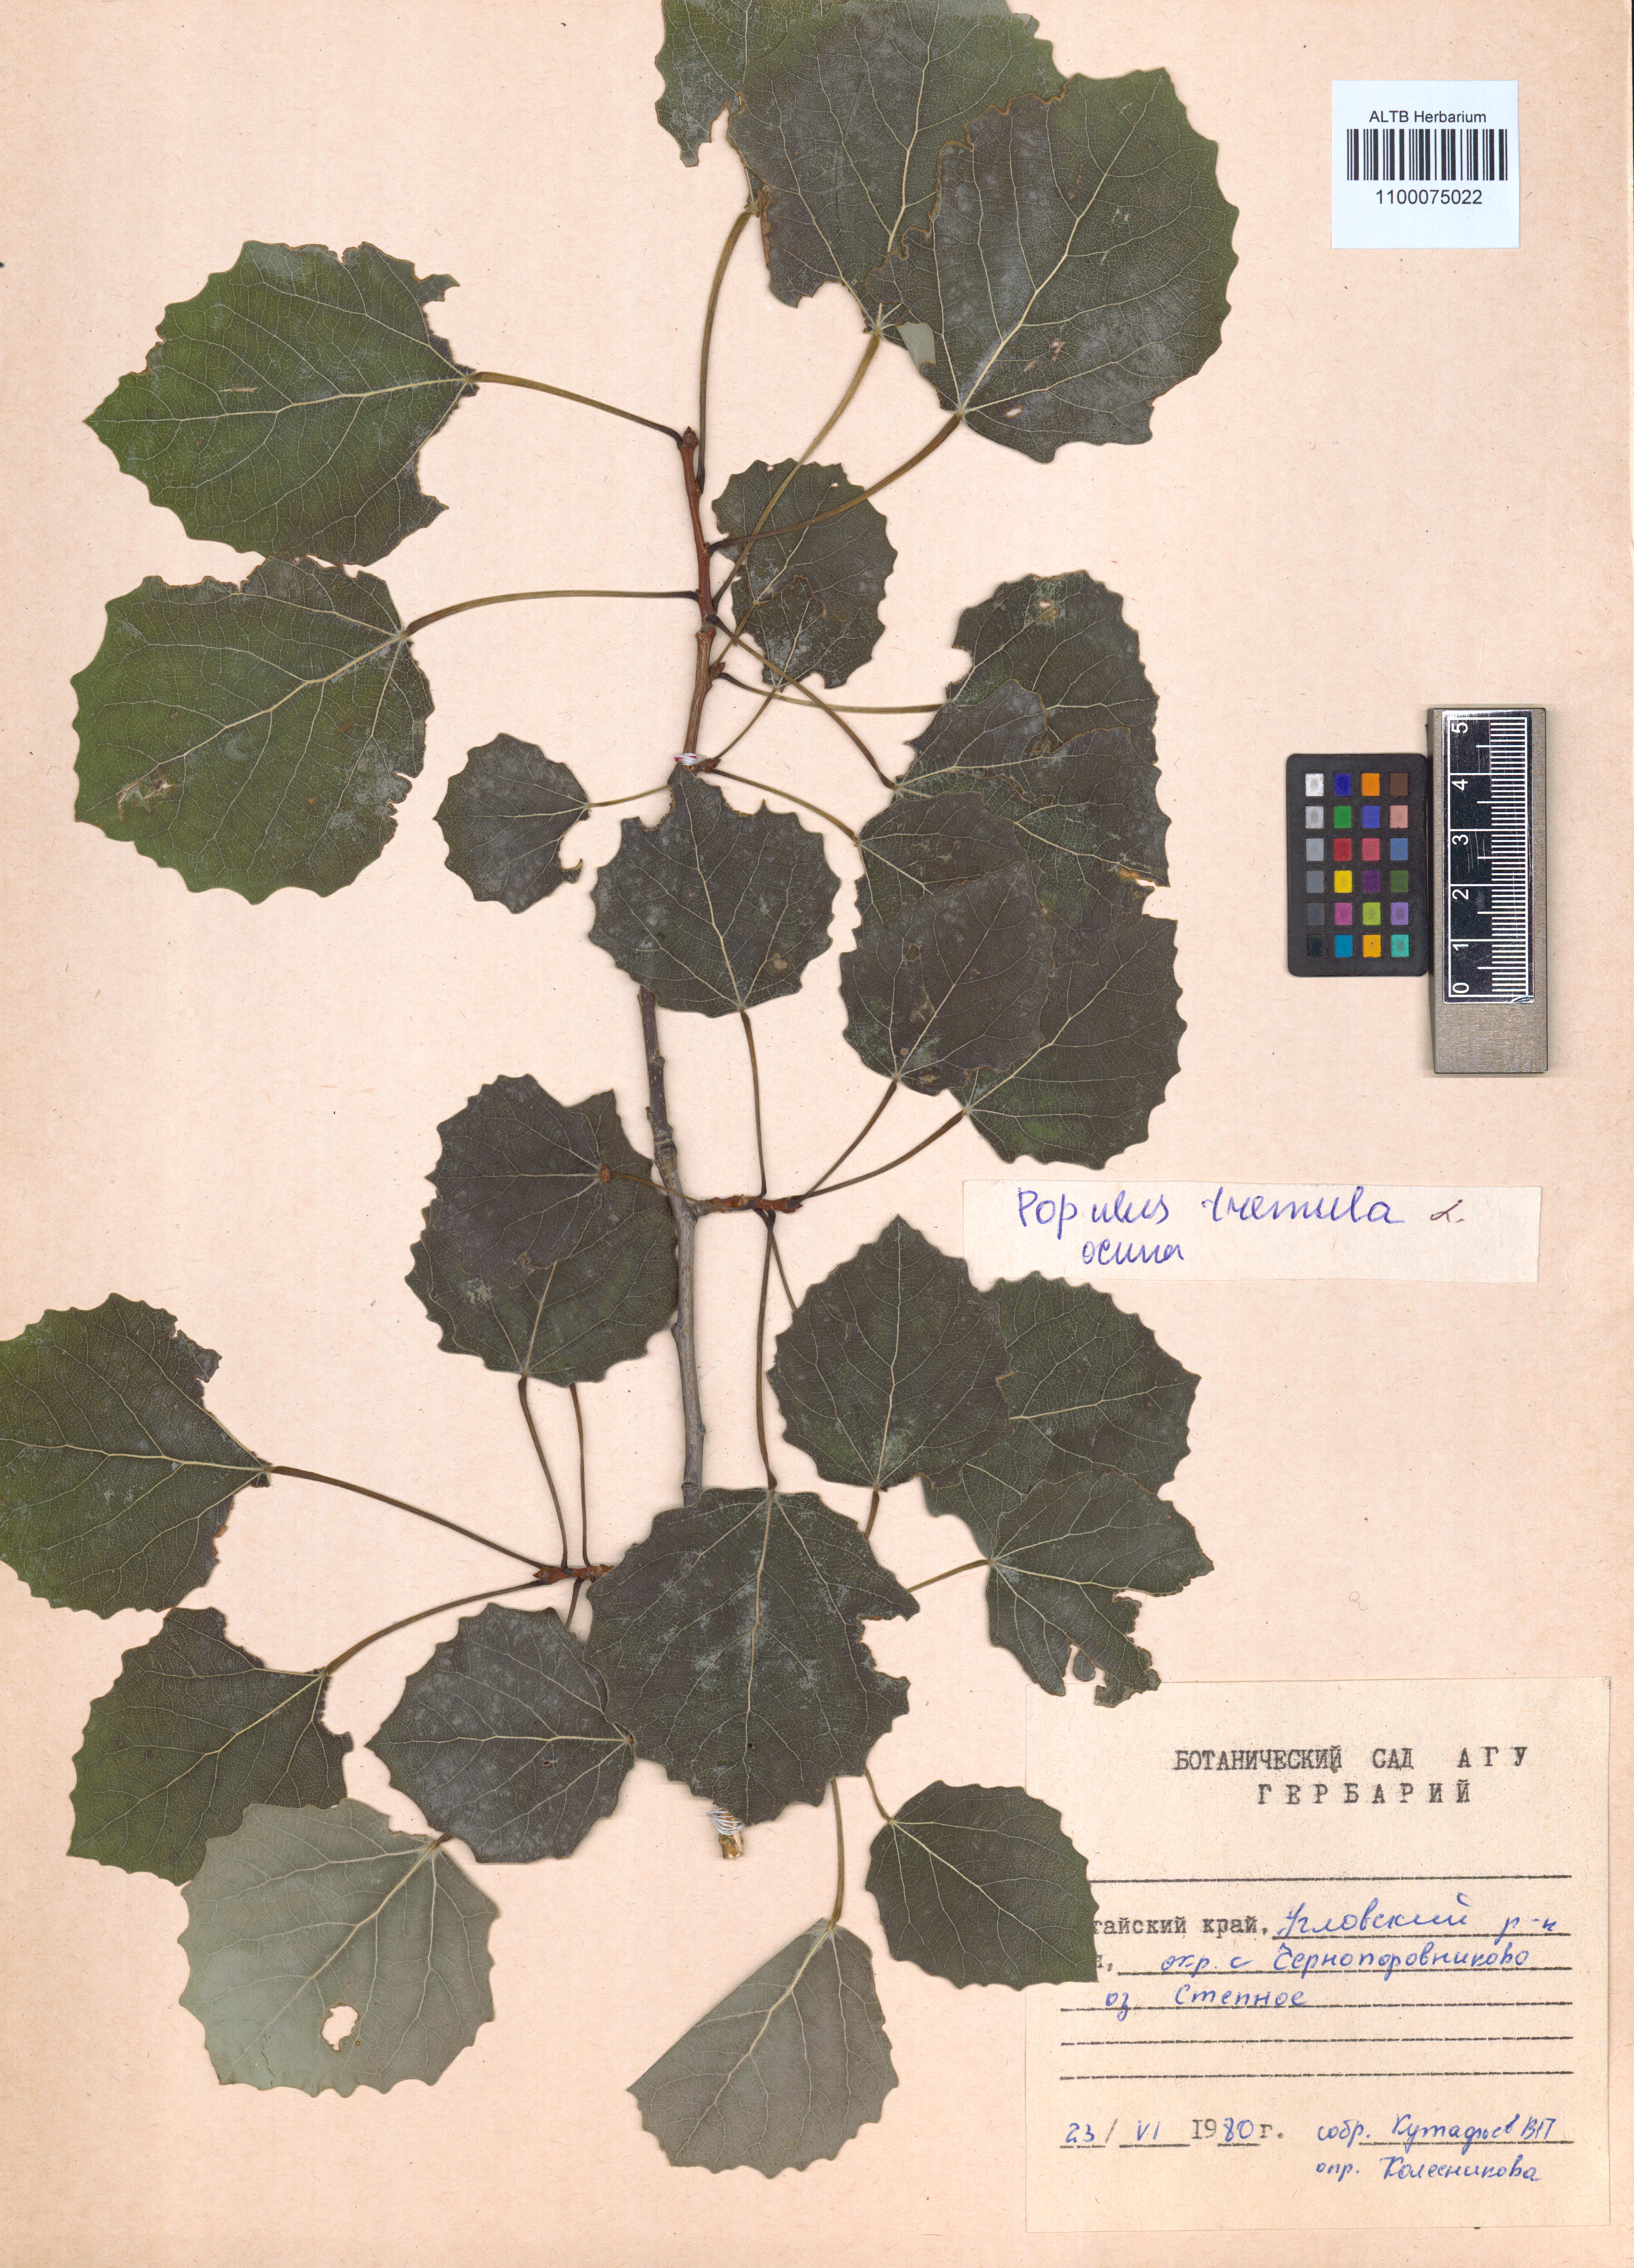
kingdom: Plantae
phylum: Tracheophyta
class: Magnoliopsida
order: Malpighiales
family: Salicaceae
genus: Populus
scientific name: Populus tremula
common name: European aspen
